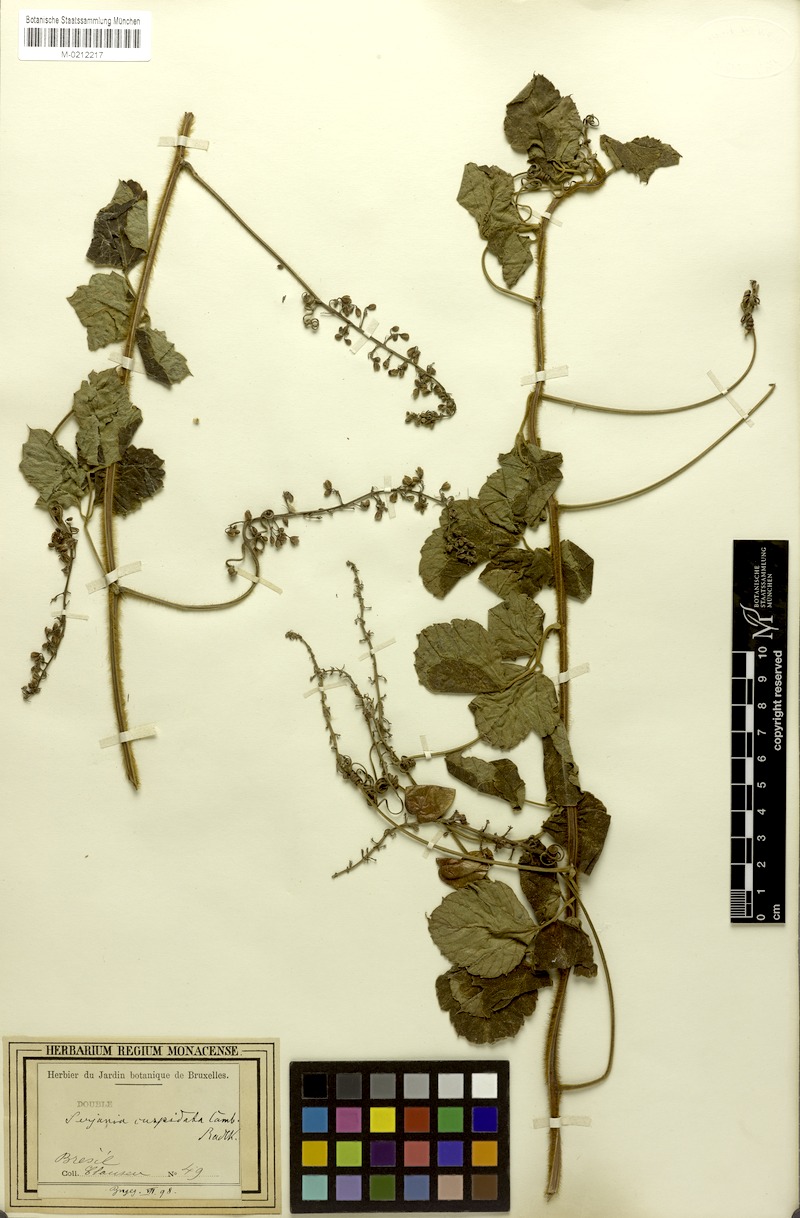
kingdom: Plantae
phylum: Tracheophyta
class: Magnoliopsida
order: Sapindales
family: Sapindaceae
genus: Serjania
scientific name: Serjania ferruginea
